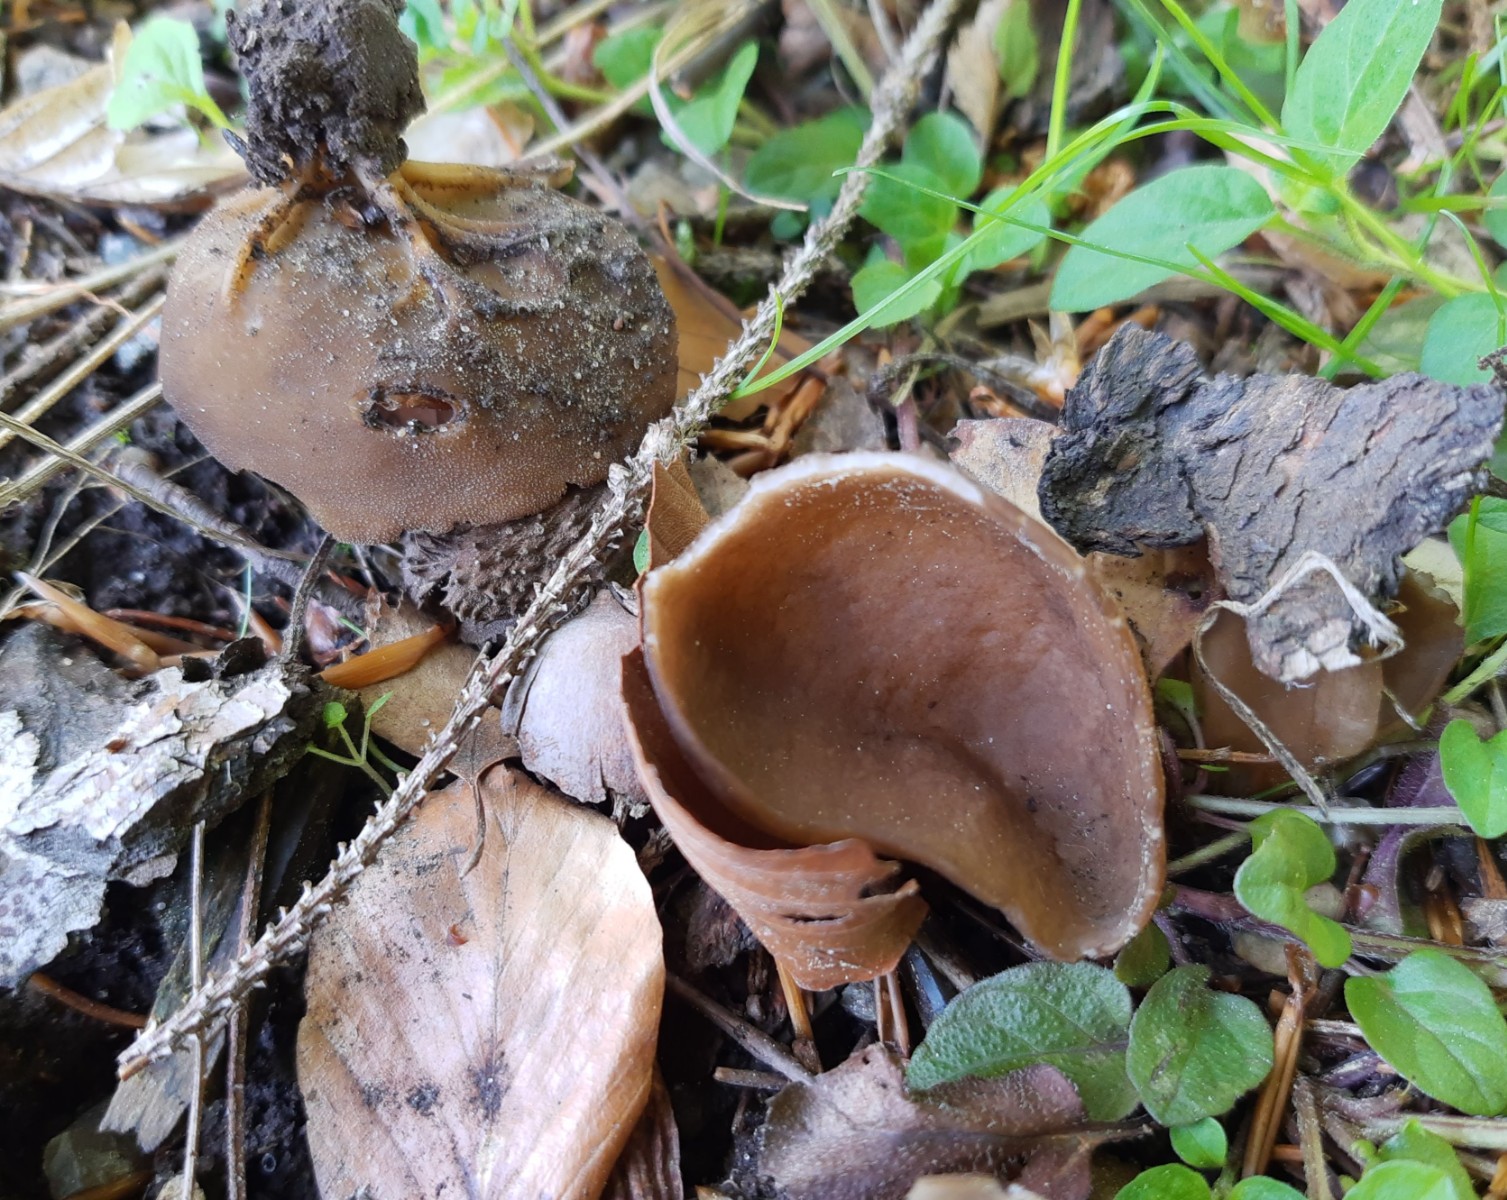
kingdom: Fungi
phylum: Ascomycota
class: Pezizomycetes
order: Pezizales
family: Helvellaceae
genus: Helvella
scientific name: Helvella acetabulum
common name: pokal-foldhat
